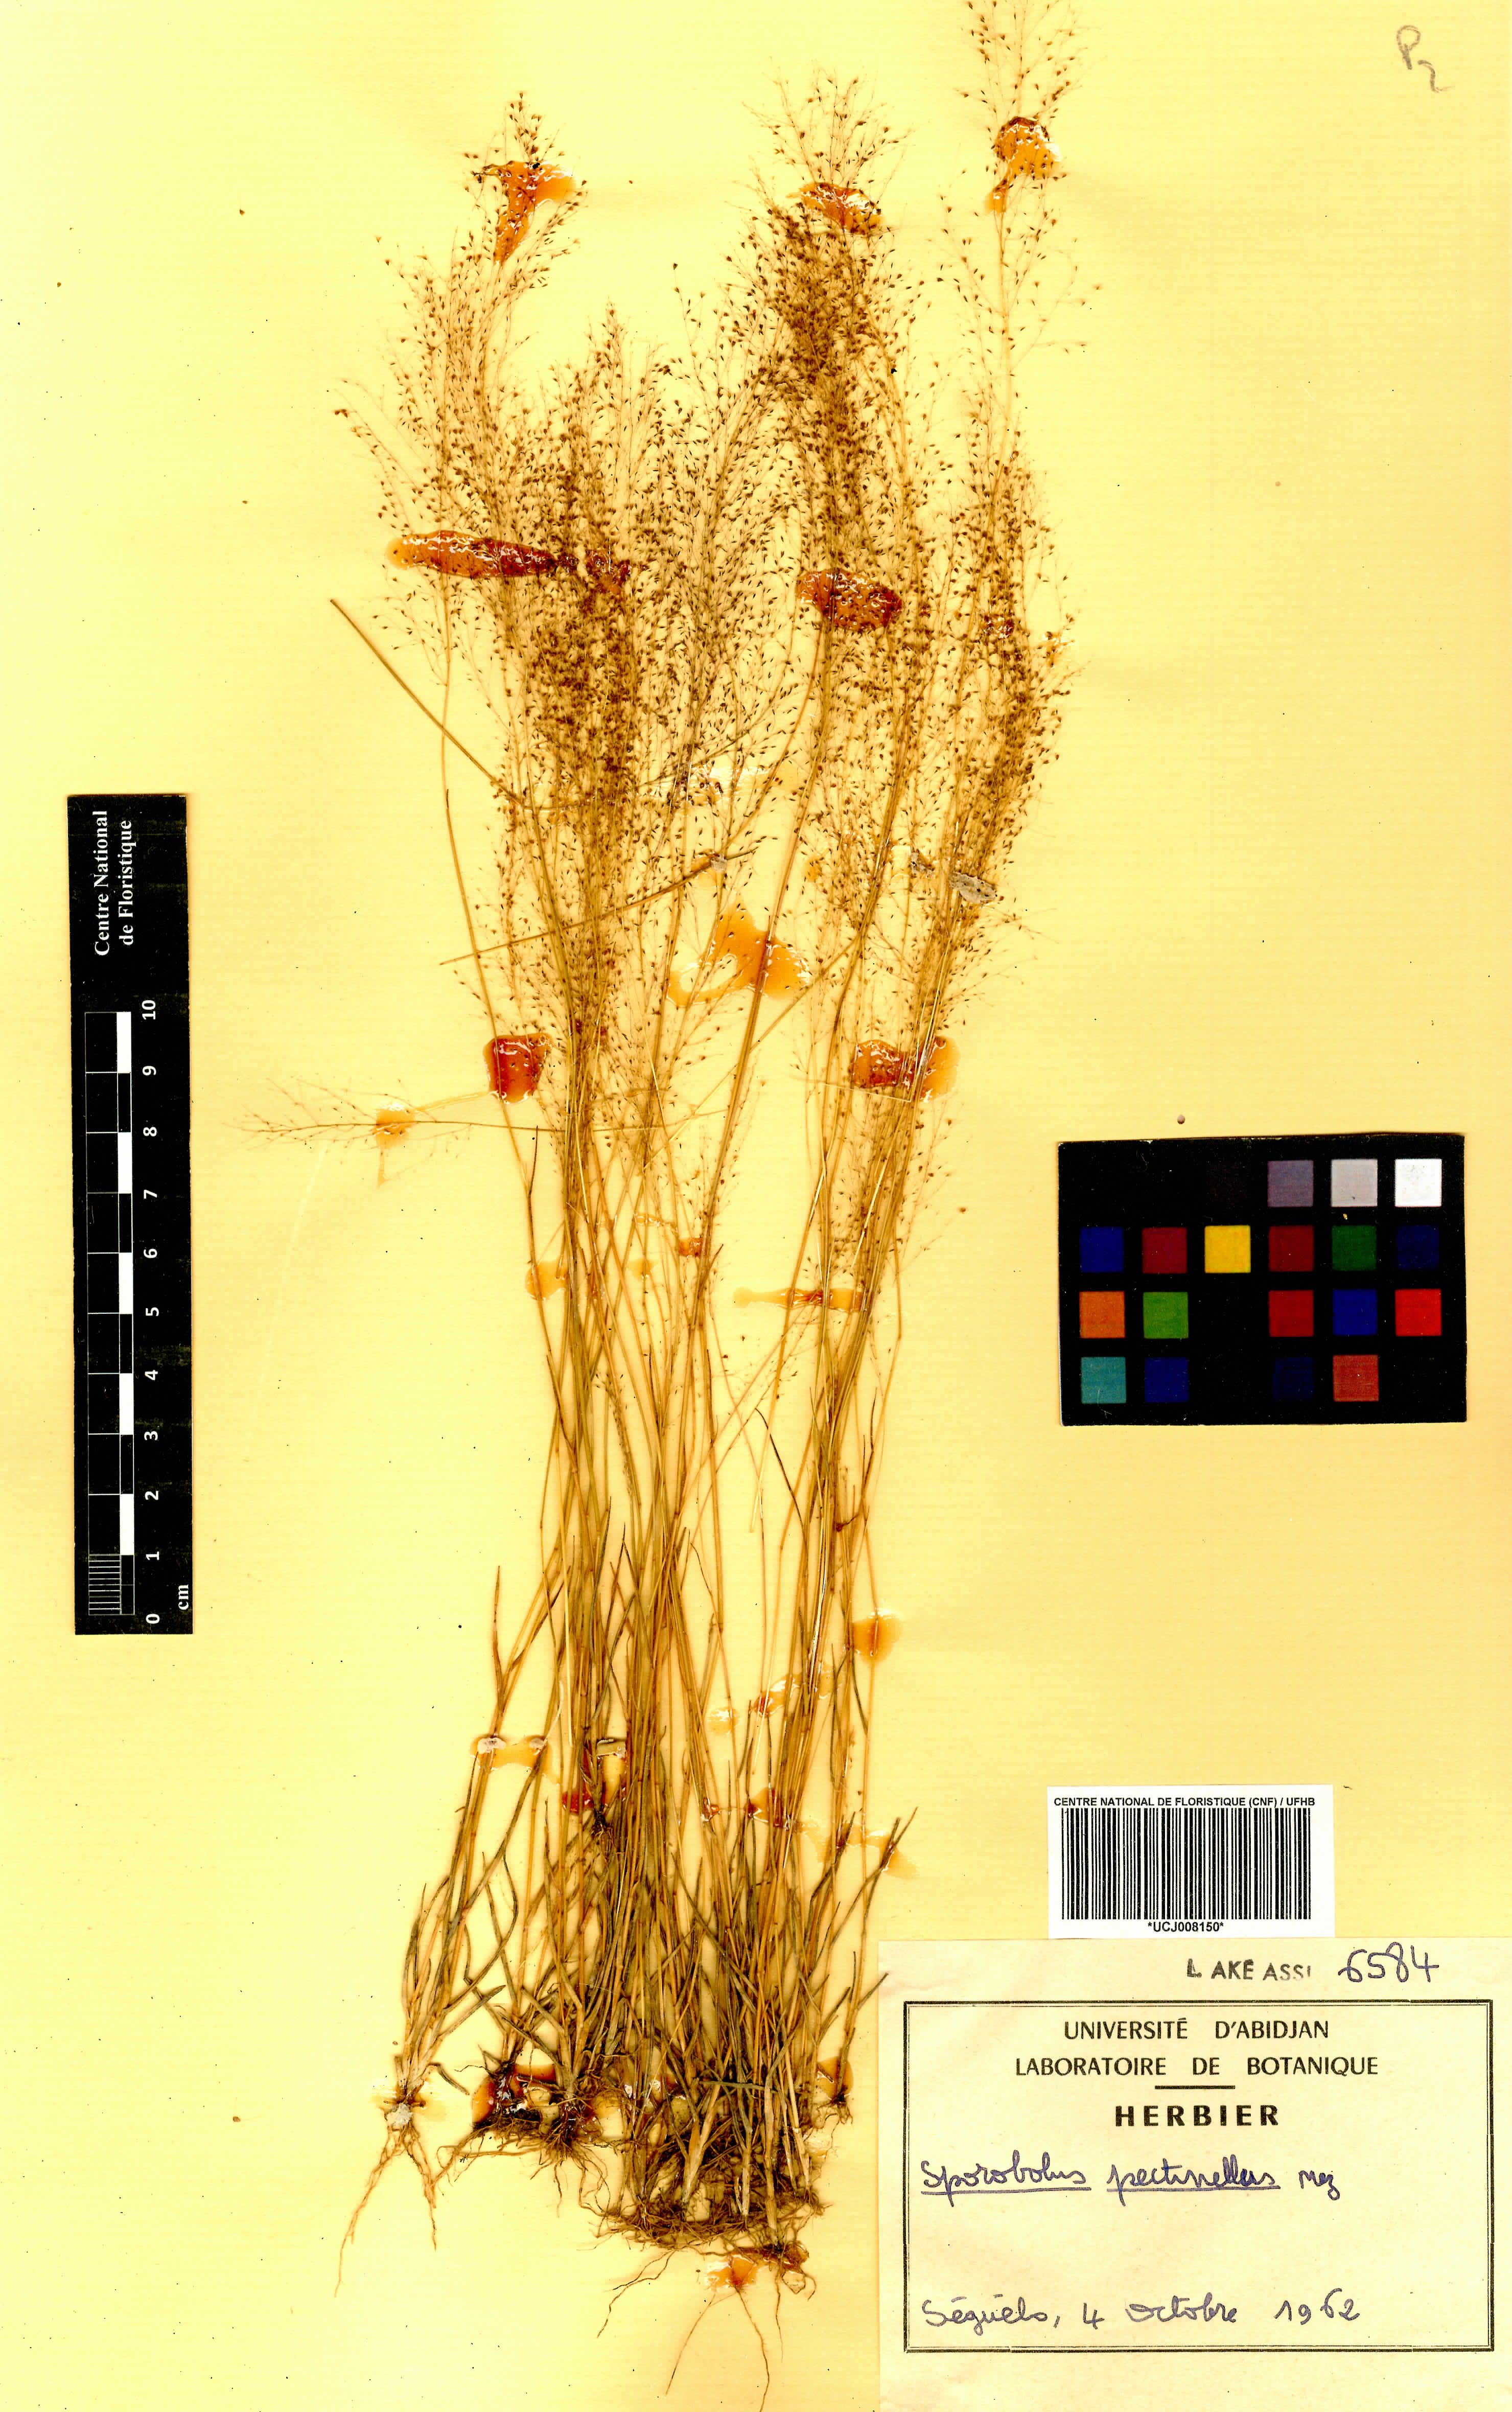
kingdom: Plantae
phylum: Tracheophyta
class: Liliopsida
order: Poales
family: Poaceae
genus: Sporobolus
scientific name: Sporobolus pectinellus
